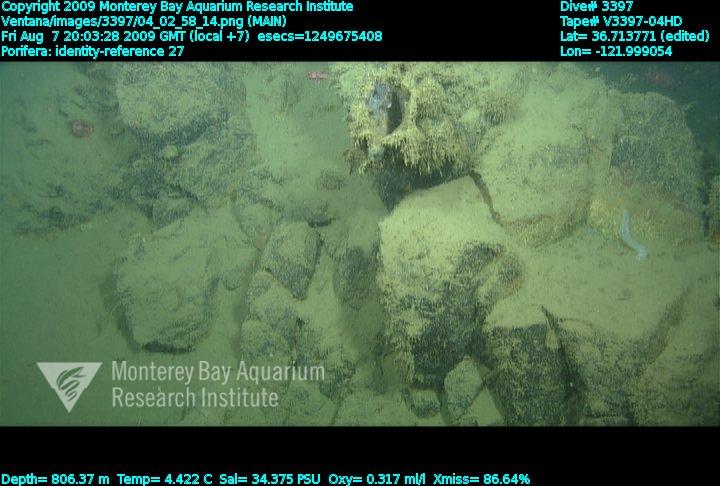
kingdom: Animalia
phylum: Porifera
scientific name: Porifera
